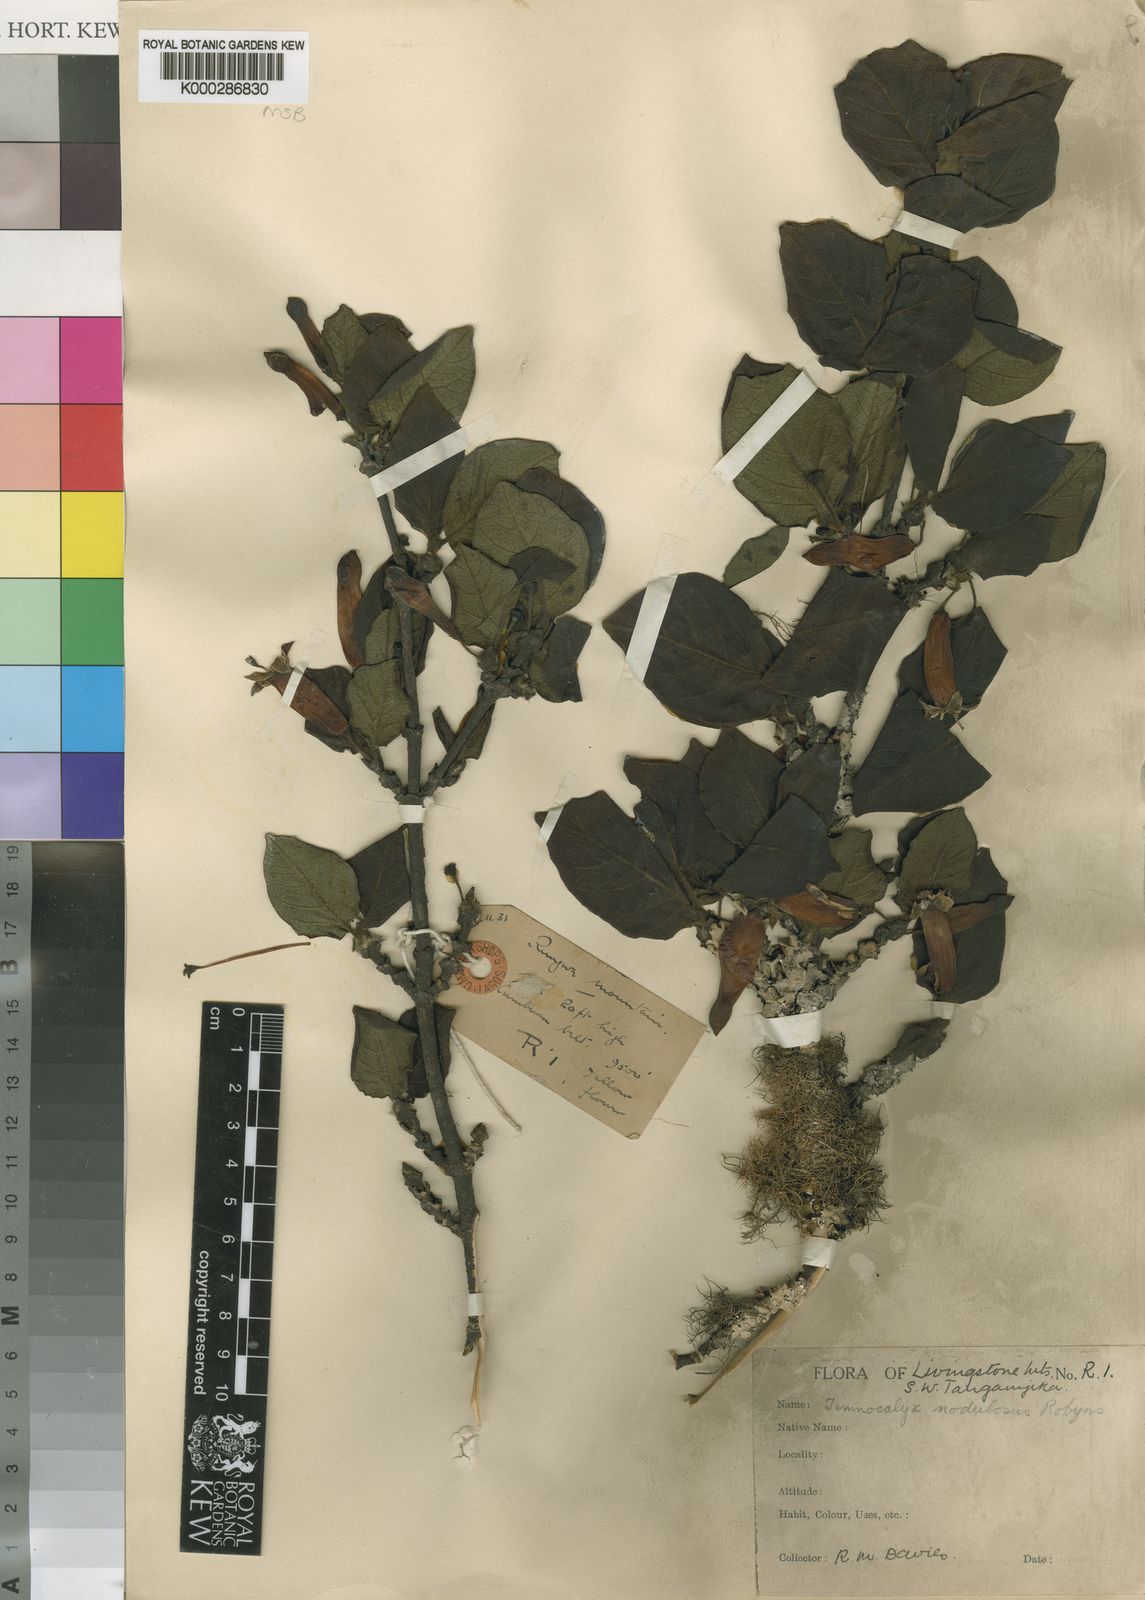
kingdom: Plantae
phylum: Tracheophyta
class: Magnoliopsida
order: Gentianales
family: Rubiaceae
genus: Temnocalyx
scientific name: Temnocalyx nodulosa
